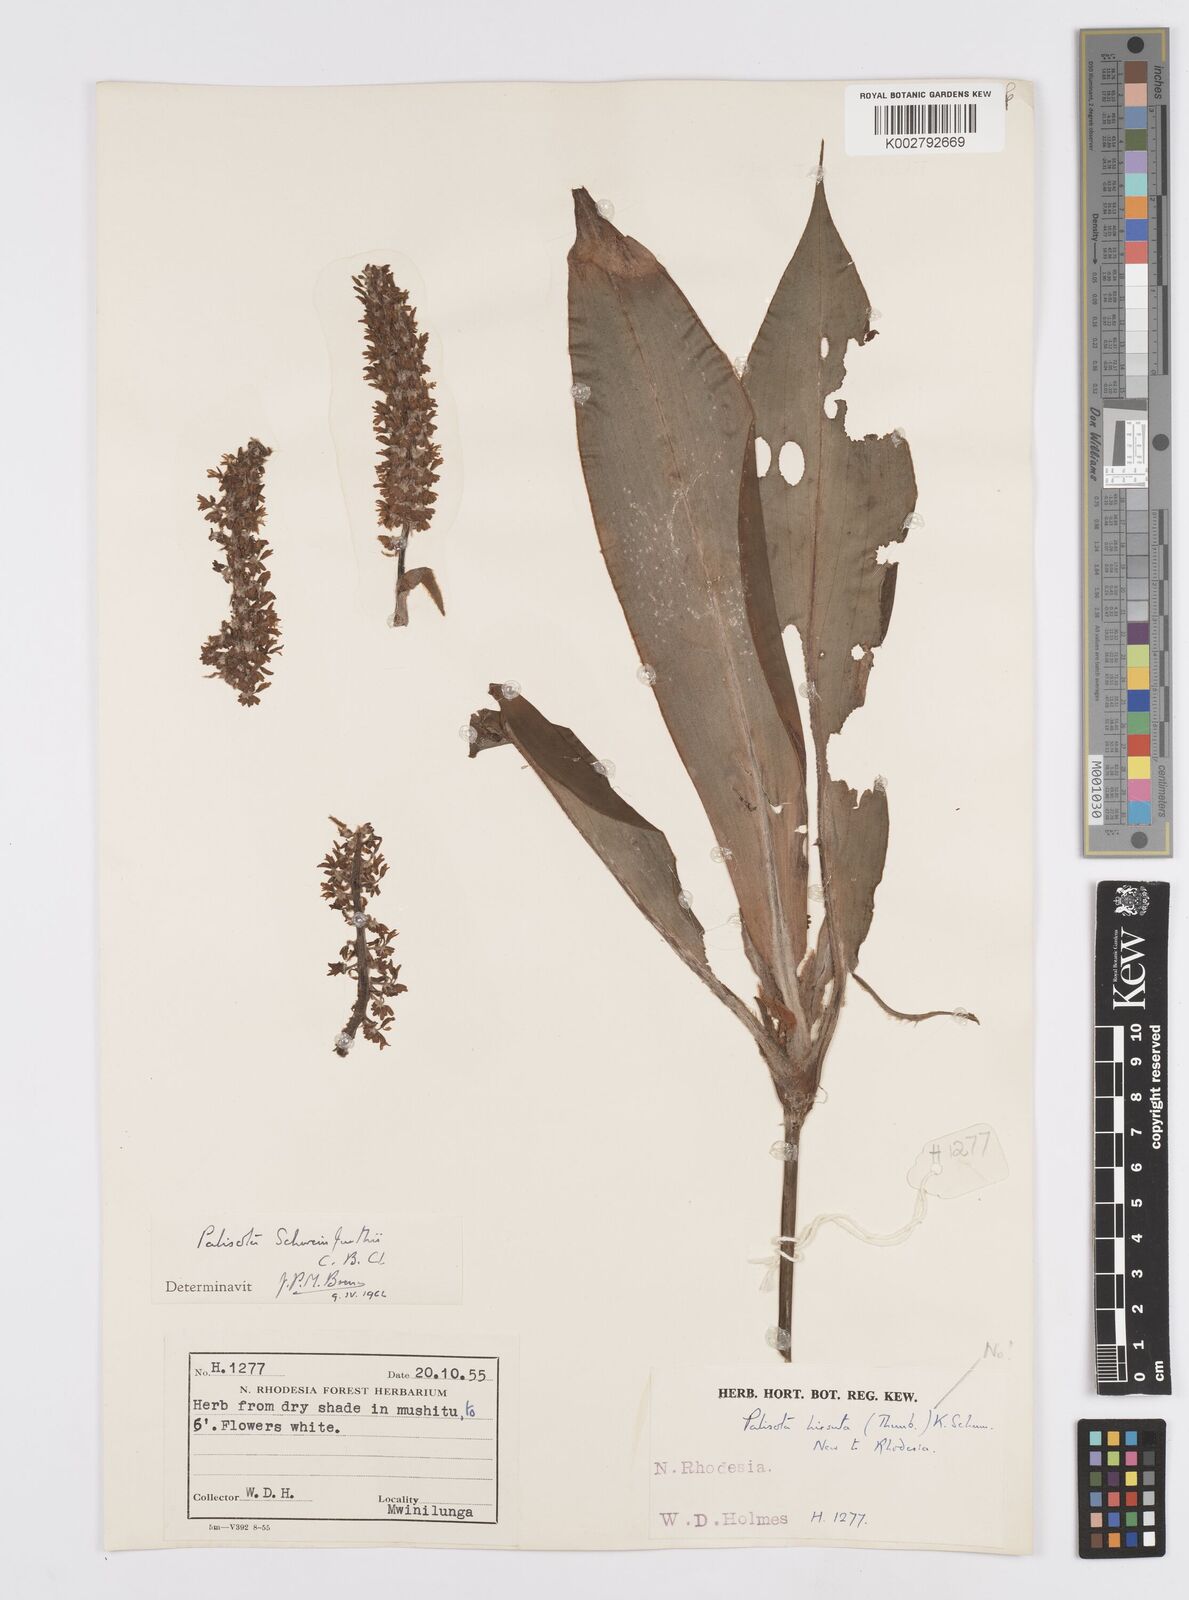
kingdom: Plantae
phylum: Tracheophyta
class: Liliopsida
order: Commelinales
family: Commelinaceae
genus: Palisota
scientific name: Palisota schweinfurthii
